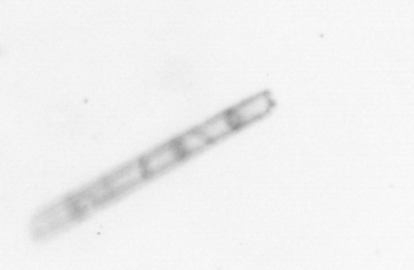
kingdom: Chromista
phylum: Ochrophyta
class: Bacillariophyceae
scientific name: Bacillariophyceae
